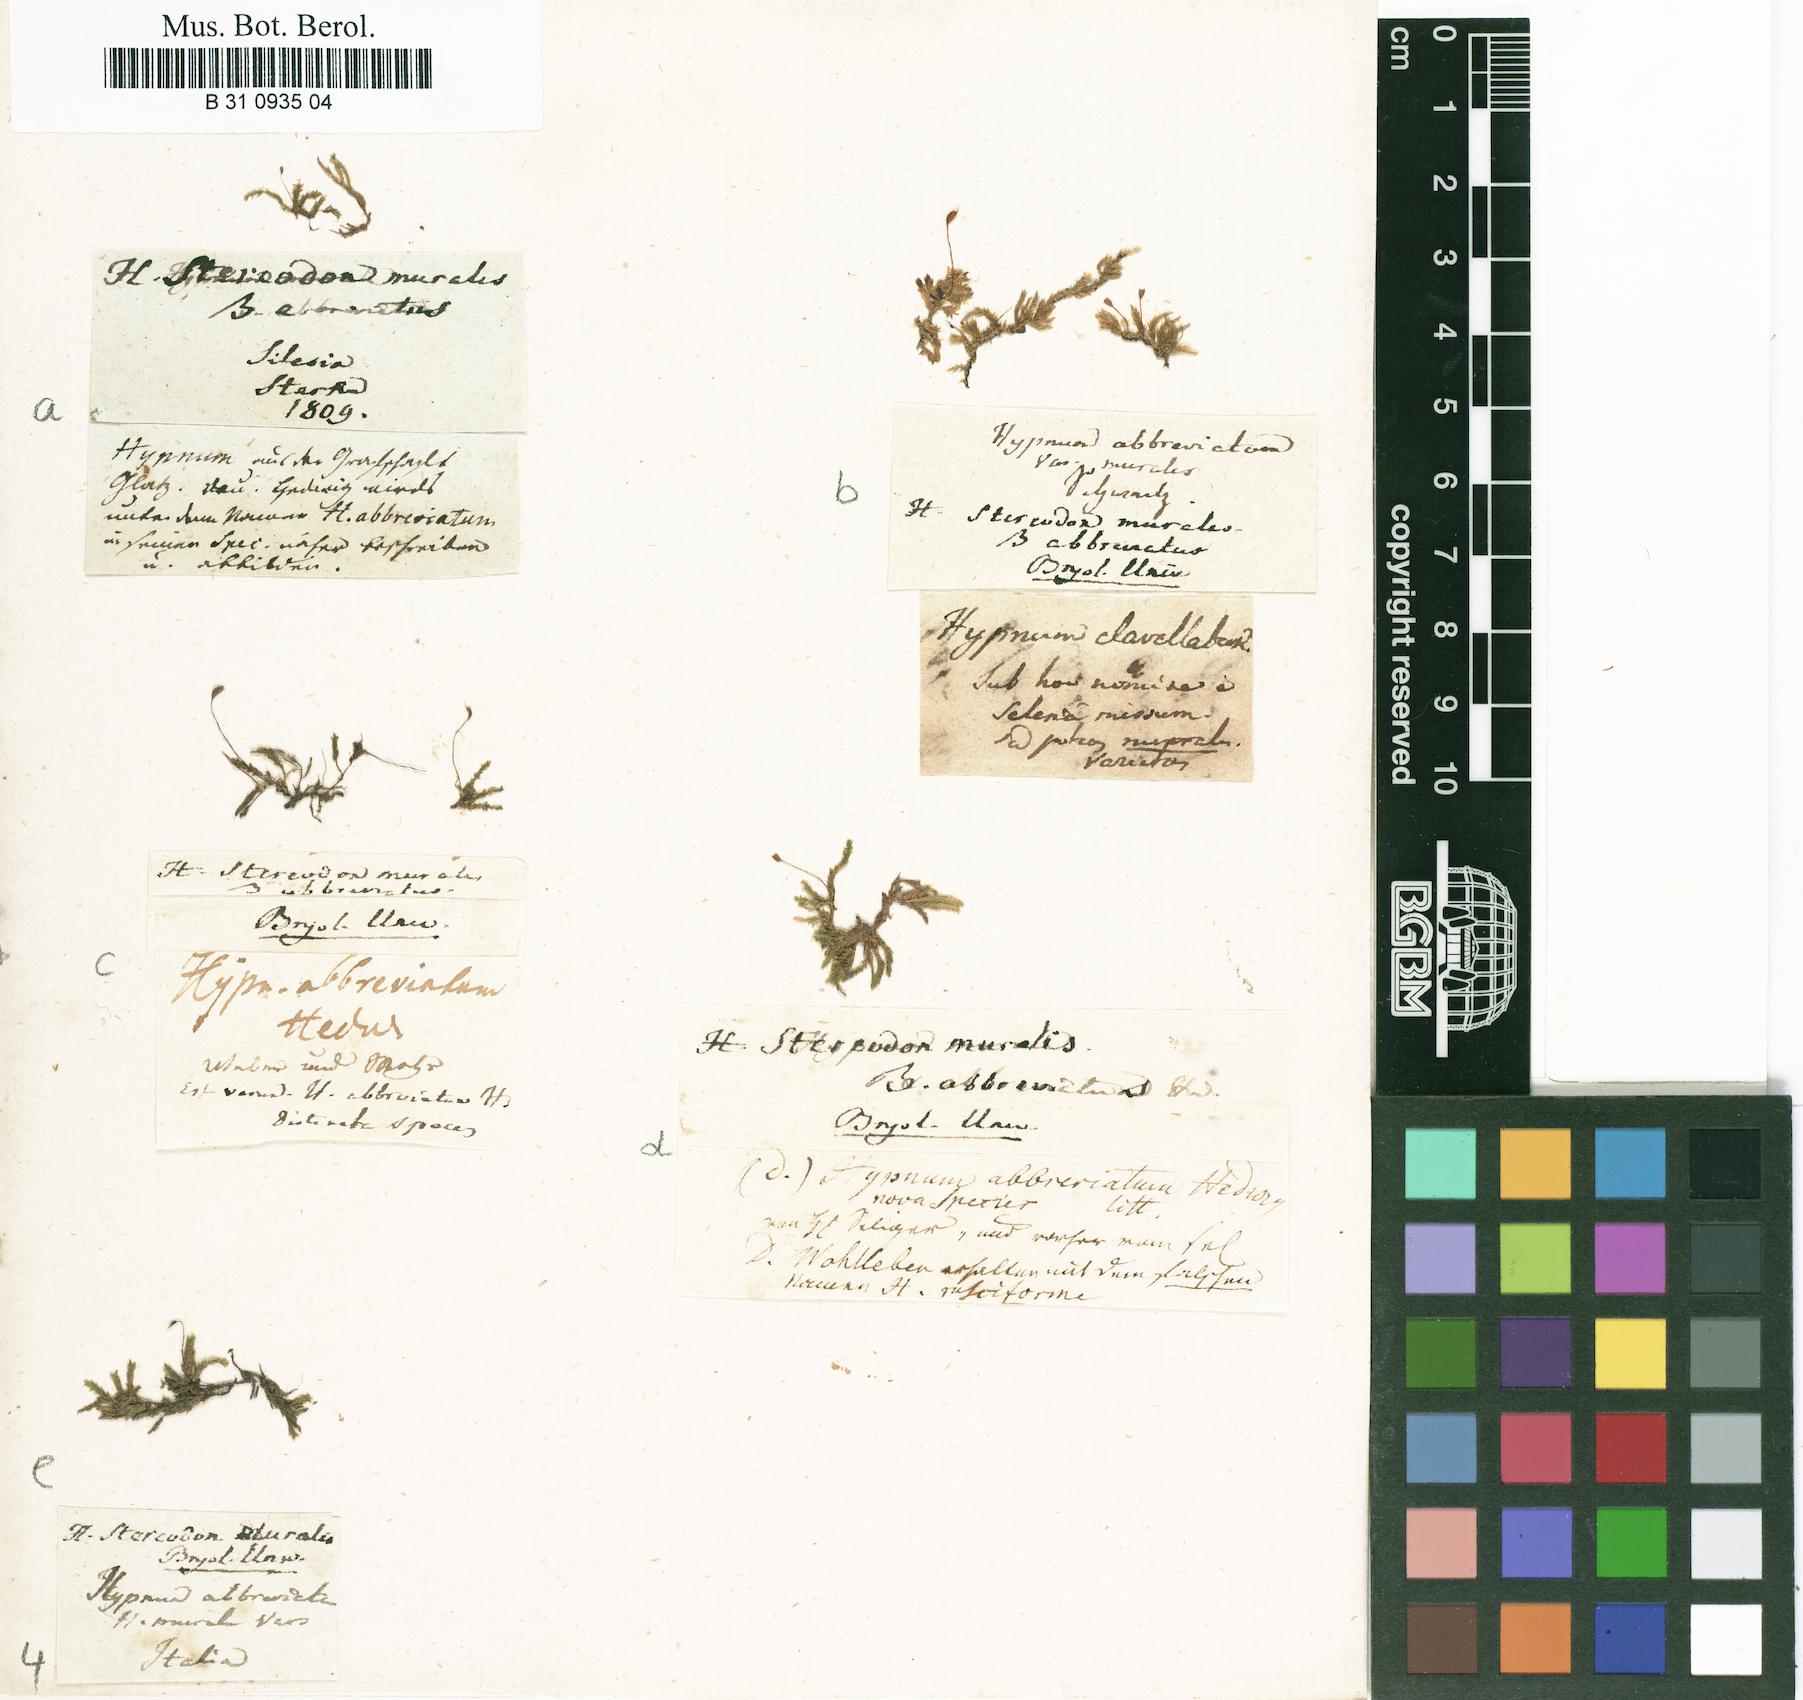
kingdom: Plantae
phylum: Bryophyta
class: Bryopsida
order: Hypnales
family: Brachytheciaceae
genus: Rhynchostegium
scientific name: Rhynchostegium murale
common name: Wall feather-moss
